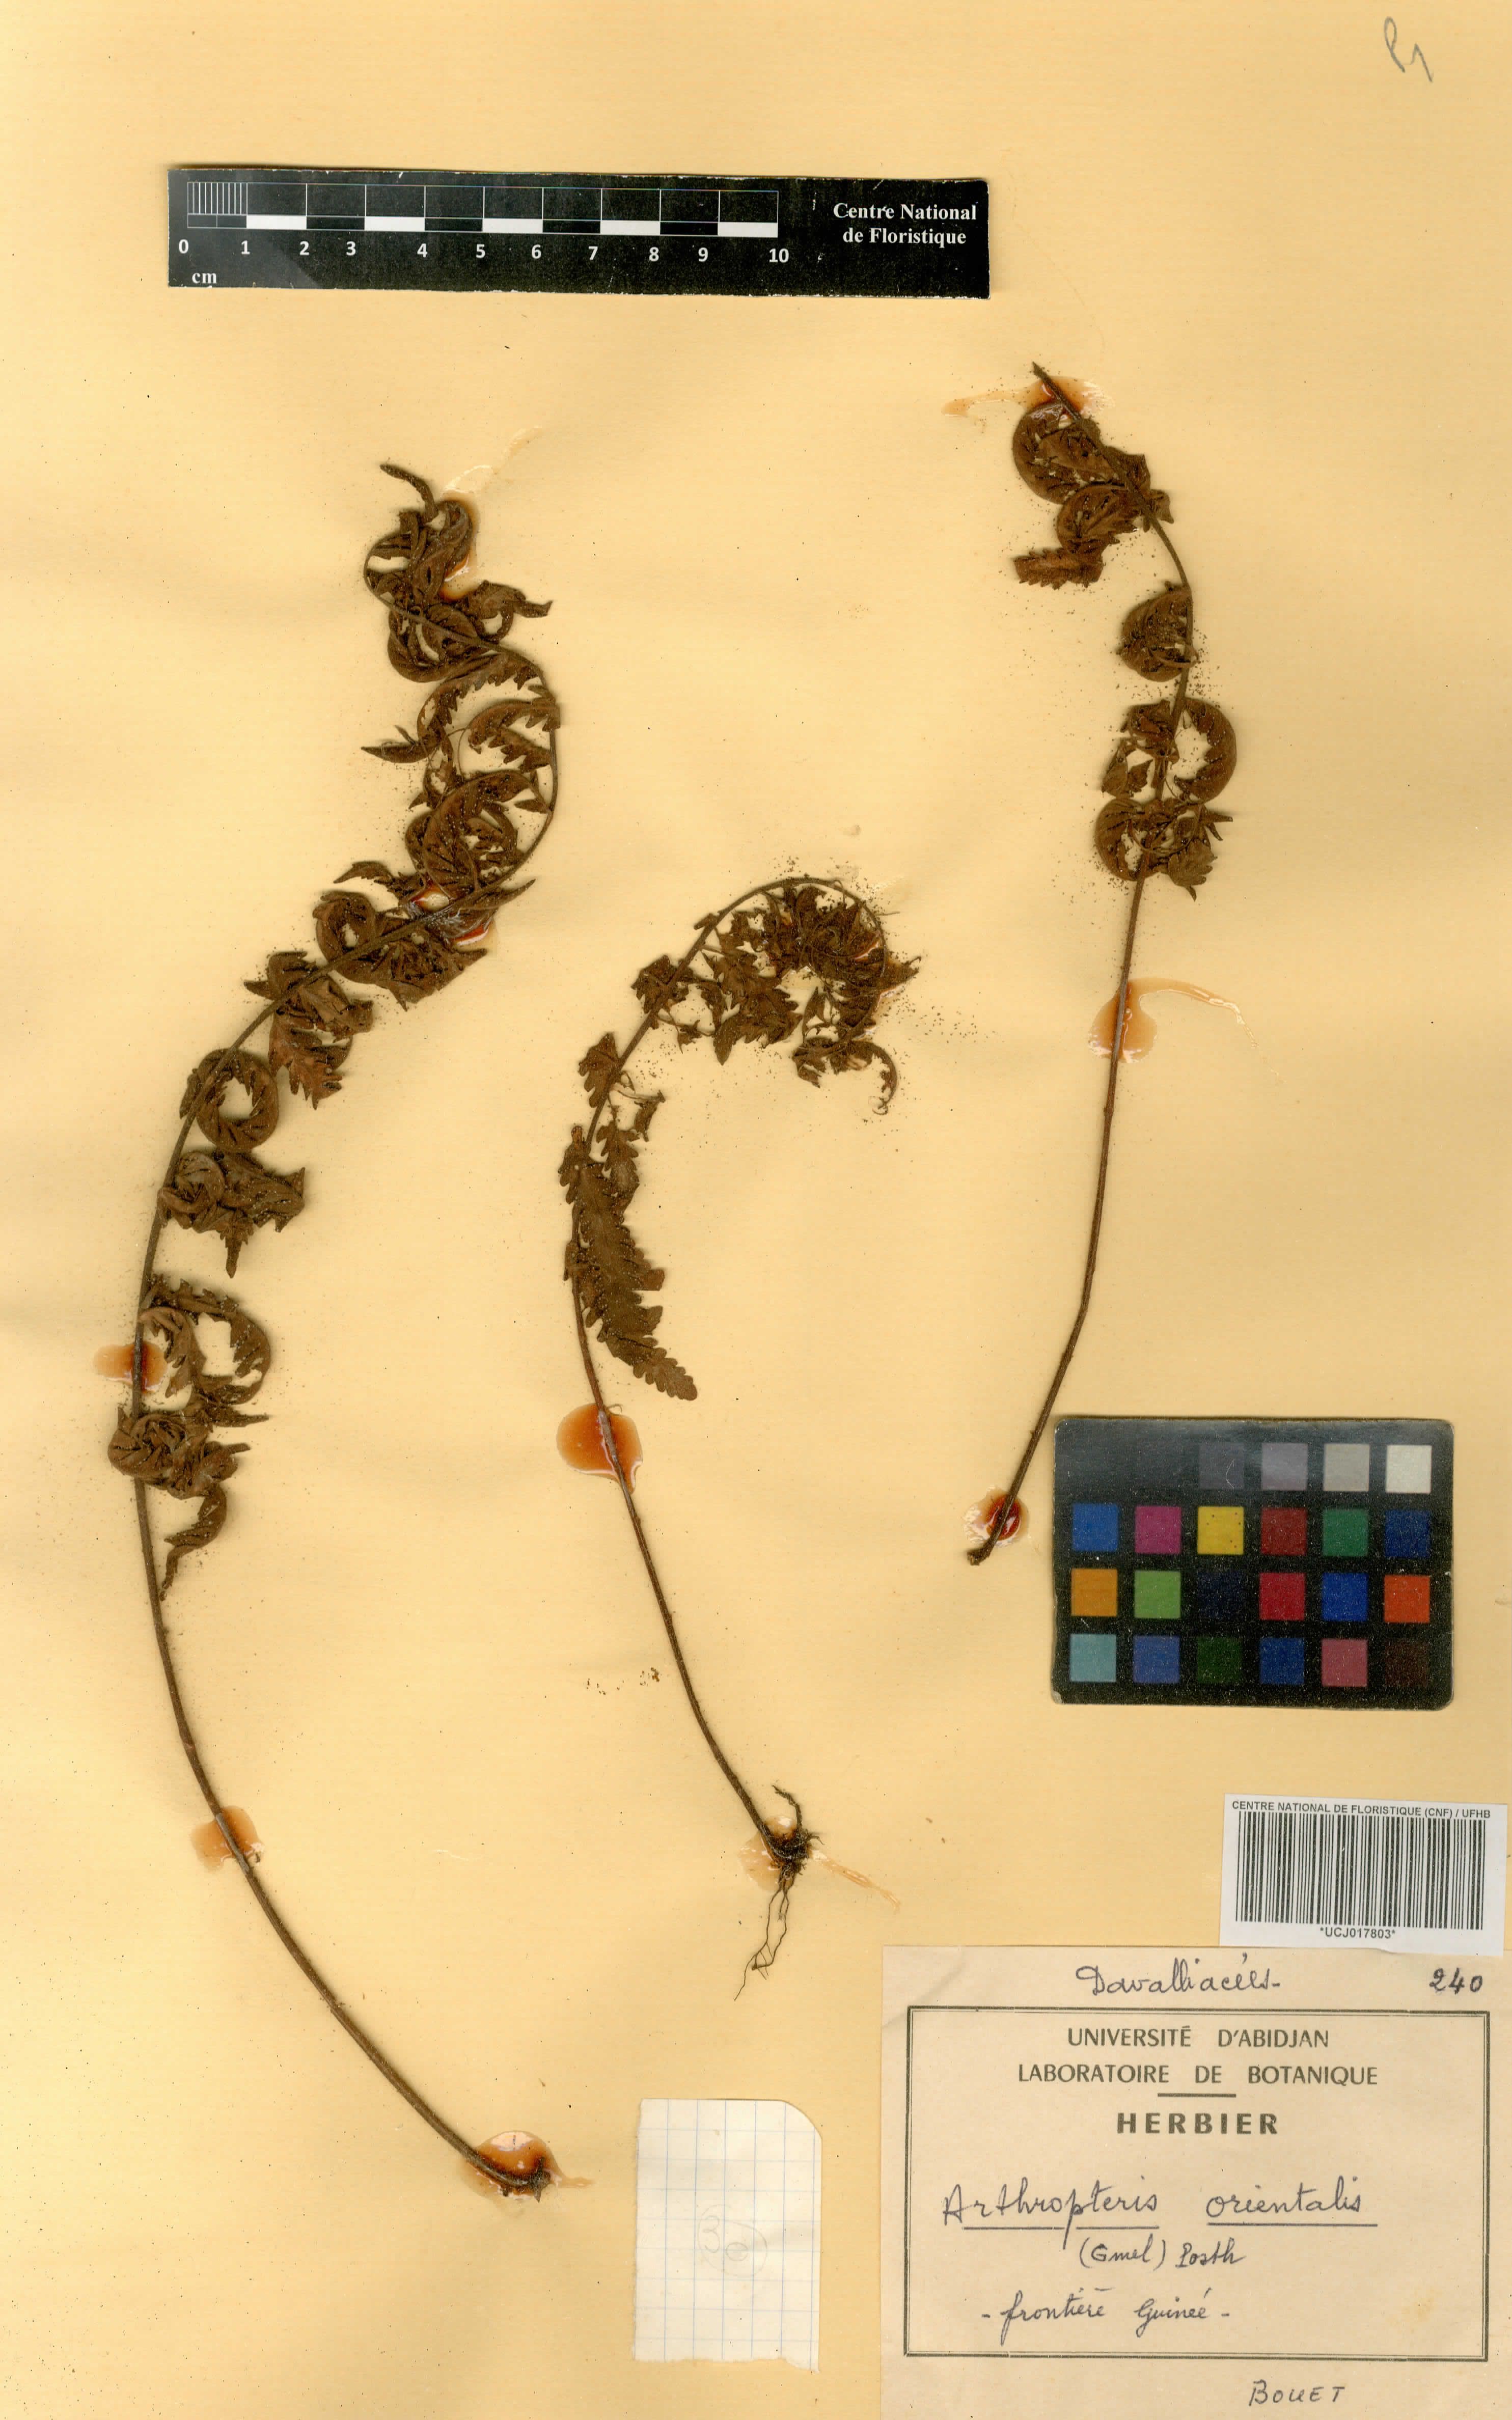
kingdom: Plantae
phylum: Tracheophyta
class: Polypodiopsida
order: Polypodiales
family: Tectariaceae
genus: Arthropteris
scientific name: Arthropteris orientalis
